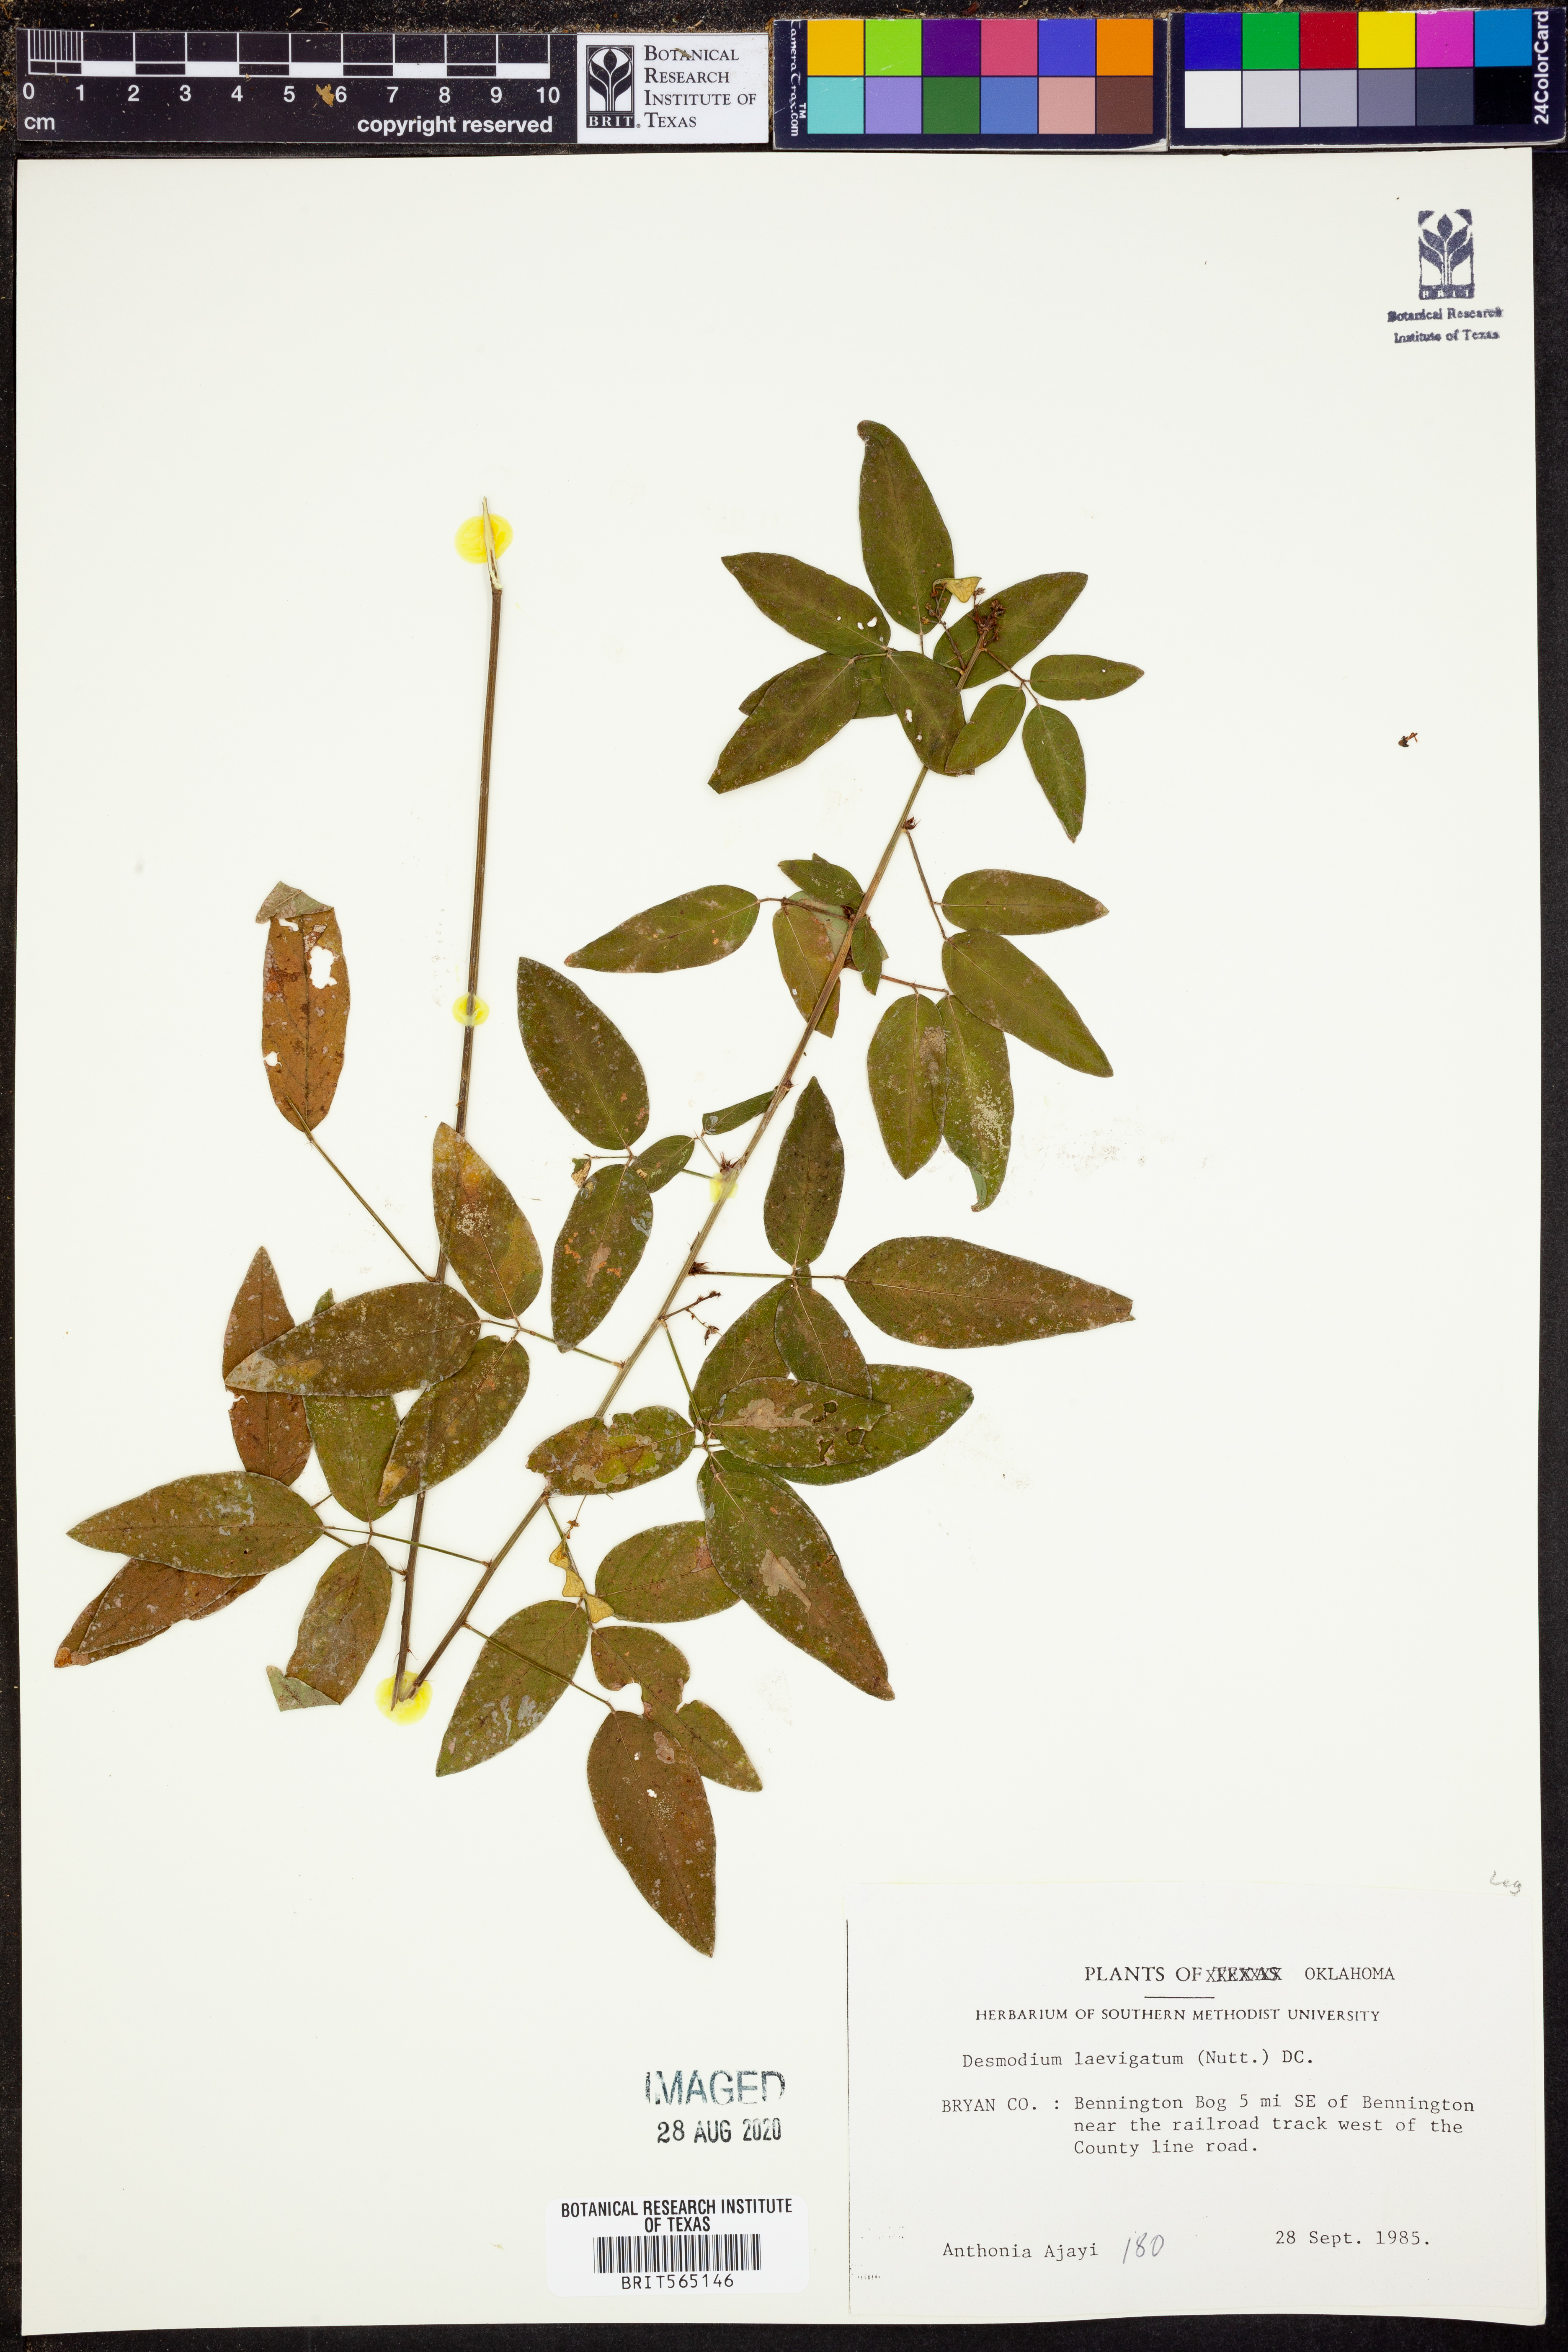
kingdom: Plantae
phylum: Tracheophyta
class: Magnoliopsida
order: Fabales
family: Fabaceae
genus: Desmodium
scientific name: Desmodium laevigatum
